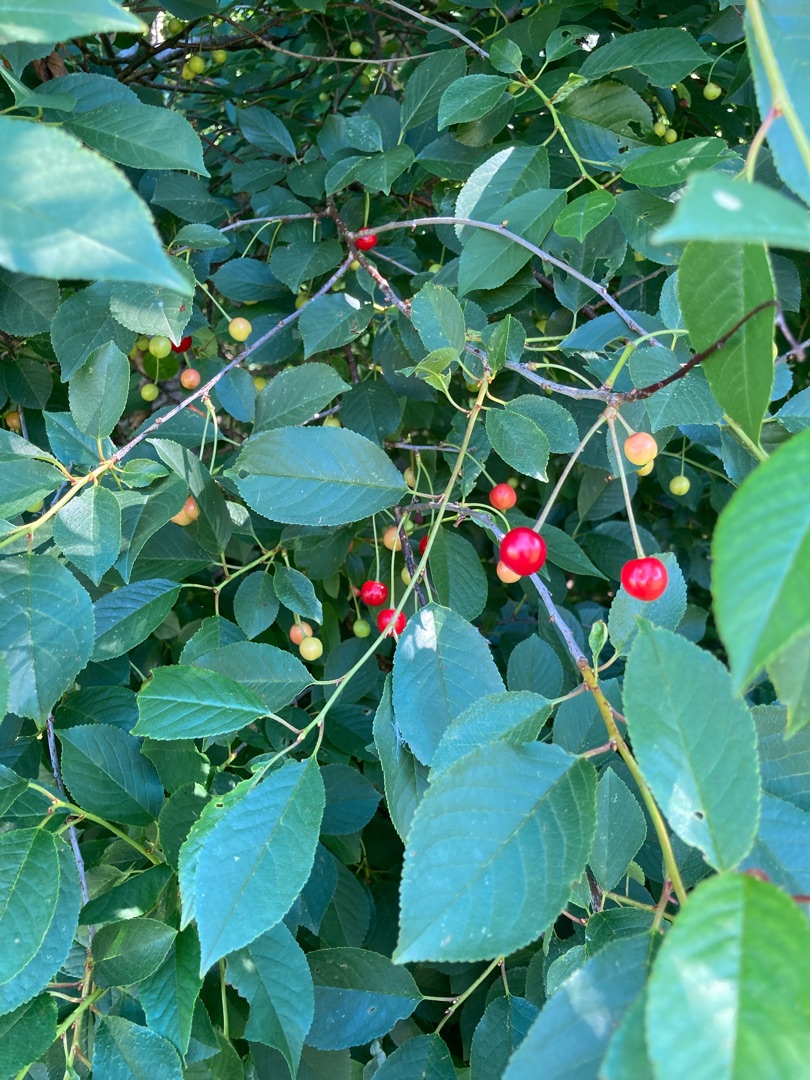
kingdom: Plantae
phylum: Tracheophyta
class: Magnoliopsida
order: Rosales
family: Rosaceae
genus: Prunus
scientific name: Prunus cerasus
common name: Sur-kirsebær
